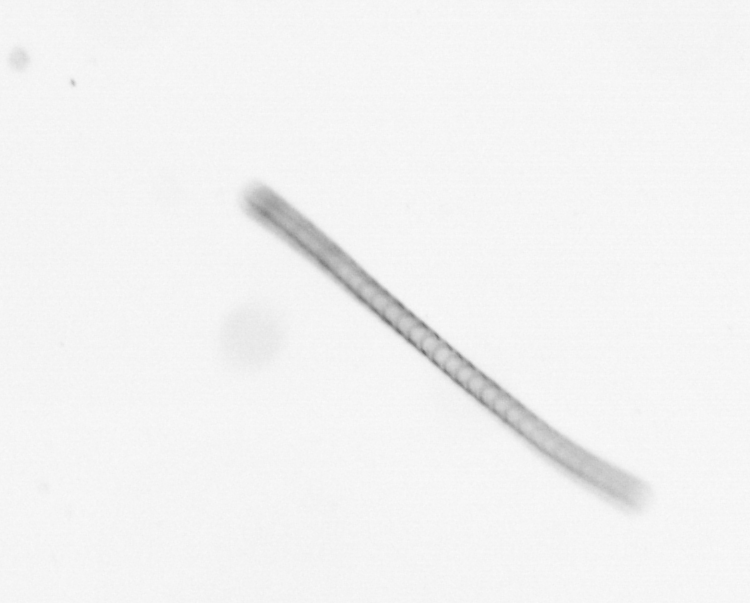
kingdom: Chromista
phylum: Ochrophyta
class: Bacillariophyceae
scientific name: Bacillariophyceae
